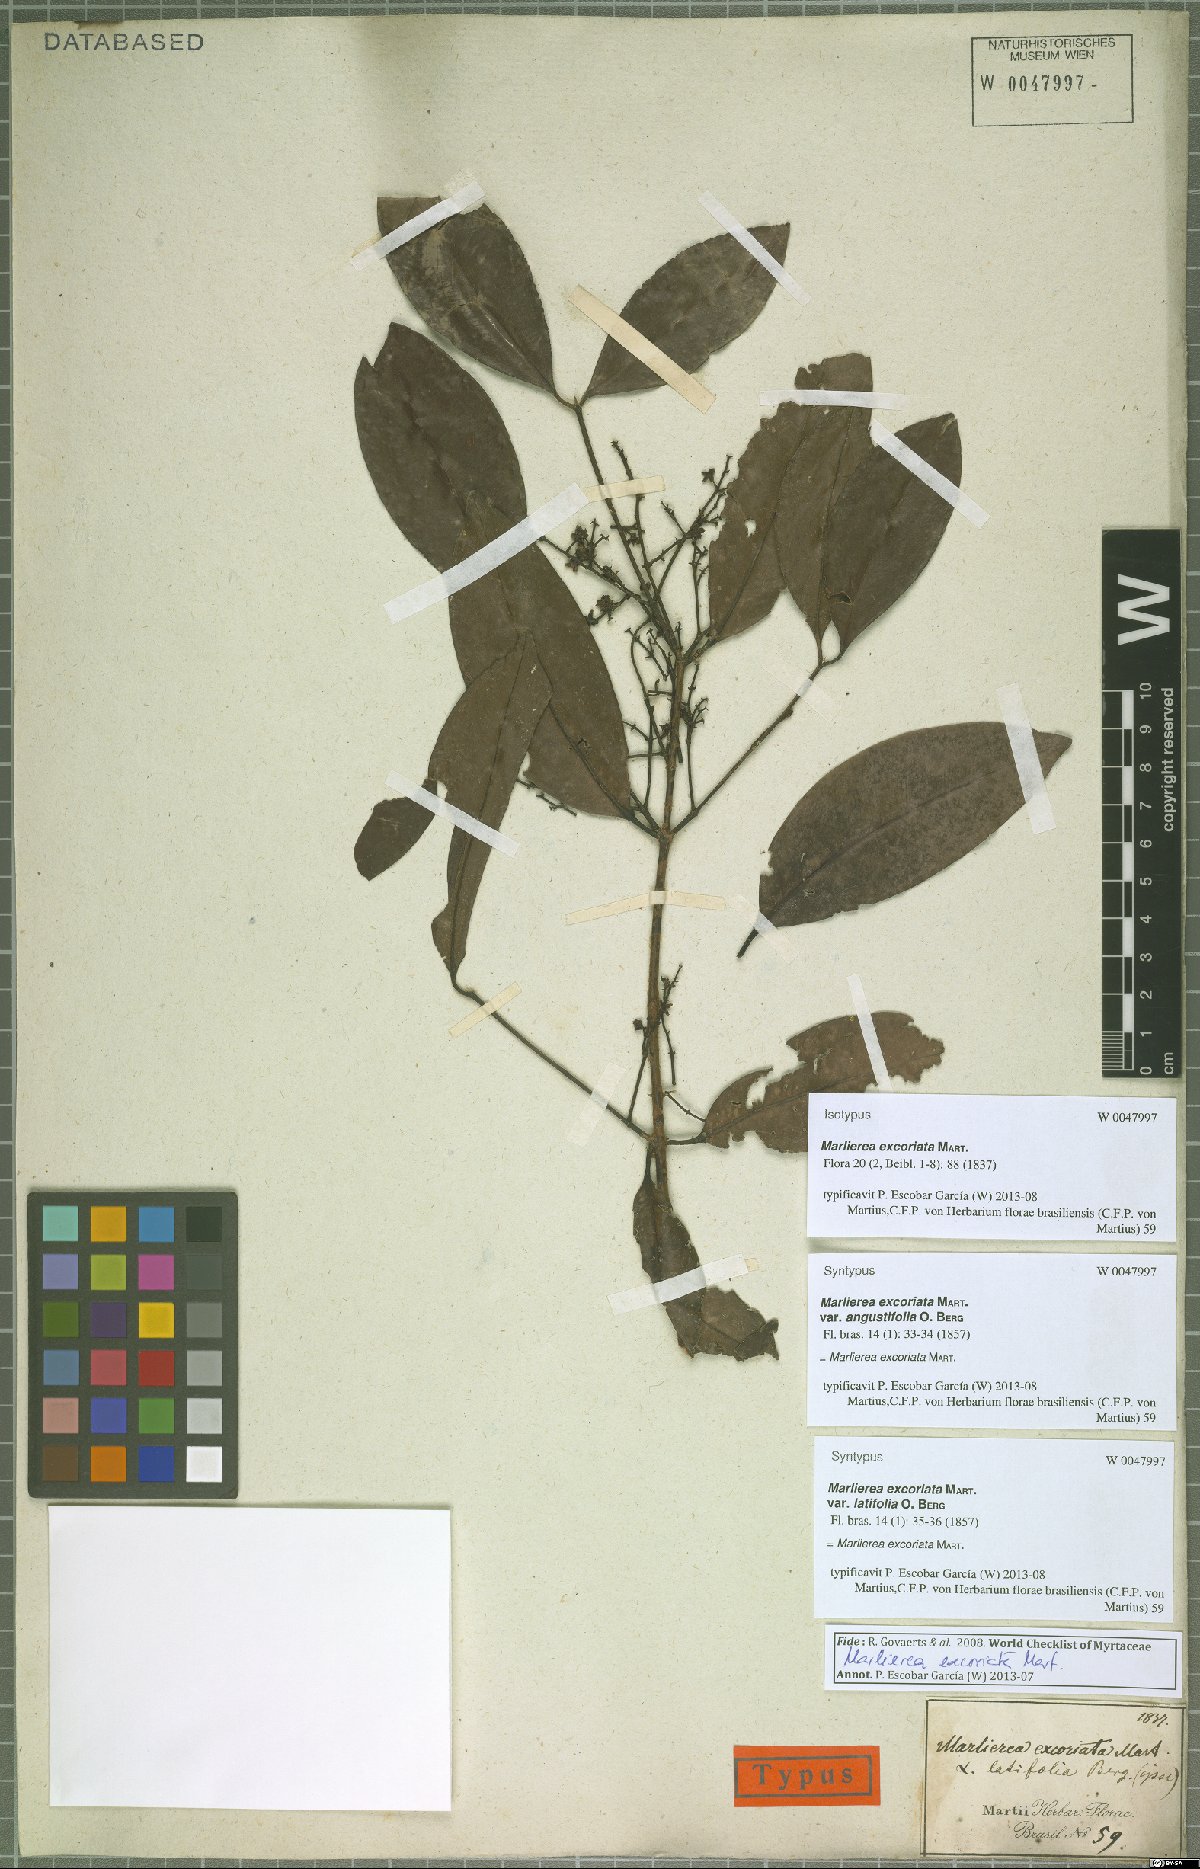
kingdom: Plantae
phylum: Tracheophyta
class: Magnoliopsida
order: Myrtales
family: Myrtaceae
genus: Myrcia
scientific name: Myrcia excoriata
